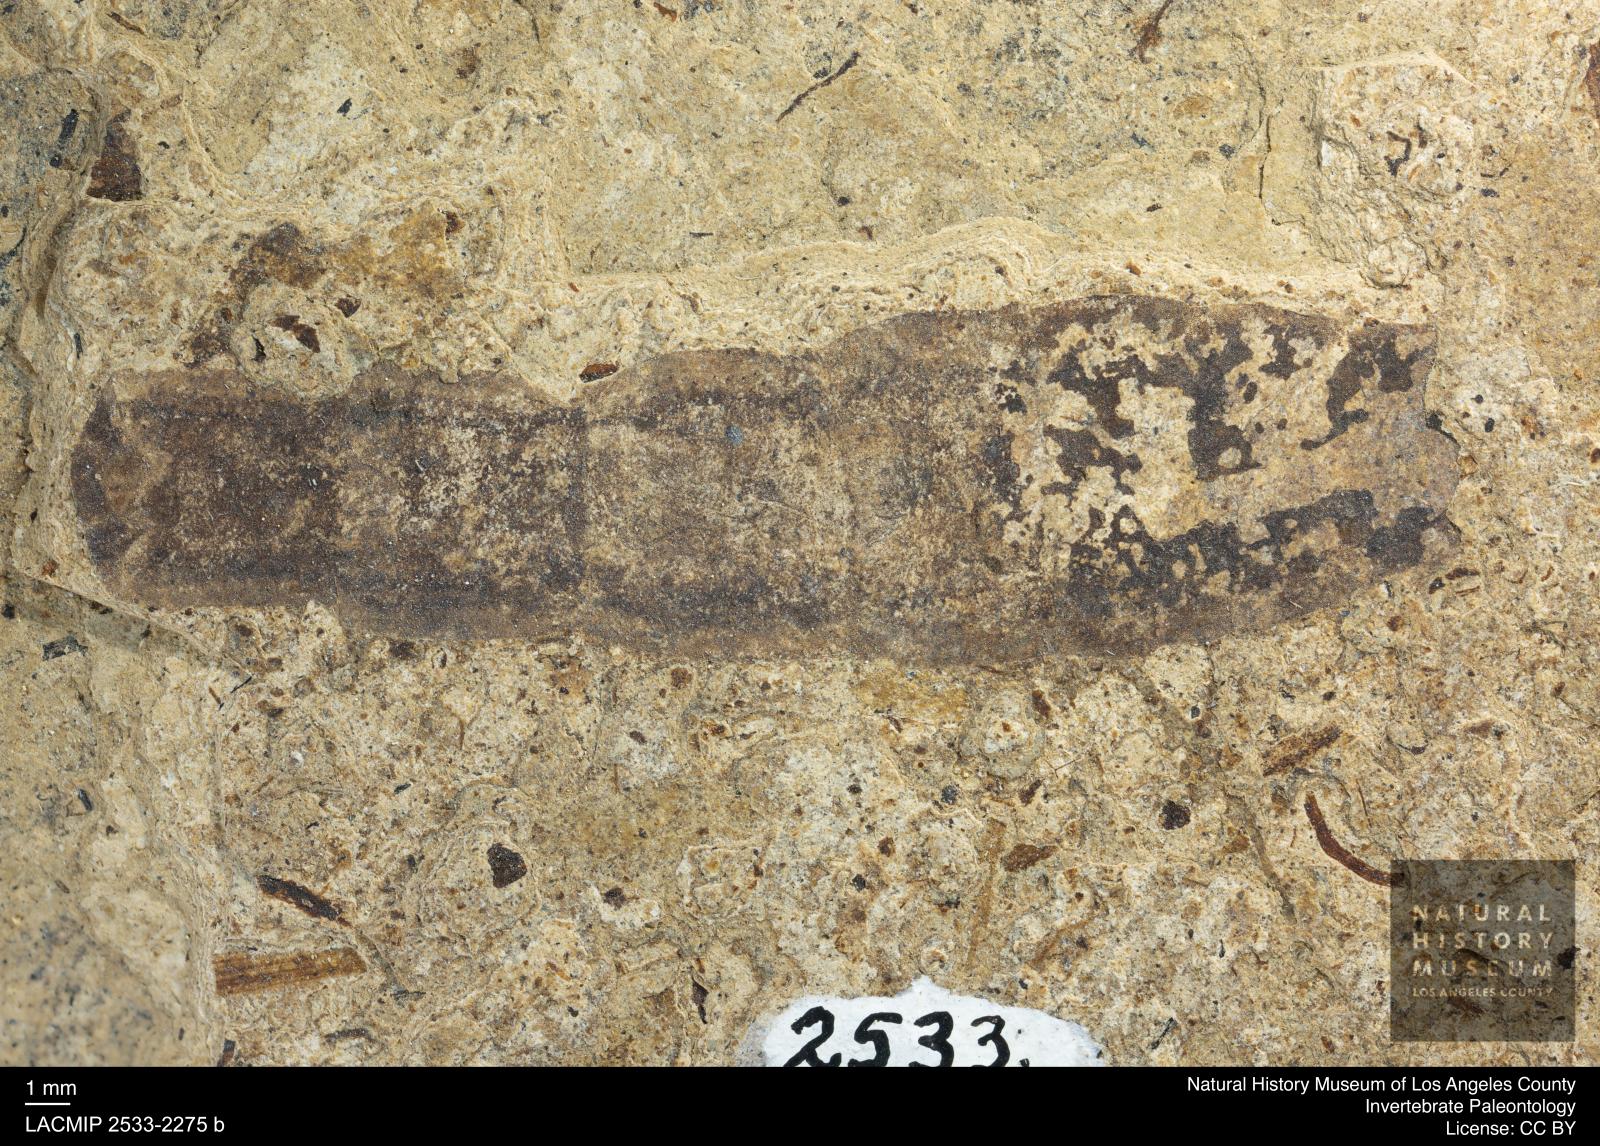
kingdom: Animalia
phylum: Arthropoda
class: Insecta
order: Diptera
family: Stratiomyidae
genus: Odontomyia
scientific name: Odontomyia
